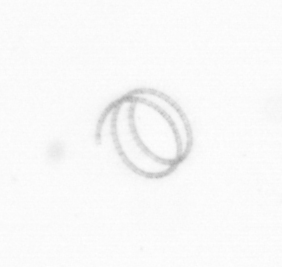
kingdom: Chromista
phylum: Ochrophyta
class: Bacillariophyceae
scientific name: Bacillariophyceae
